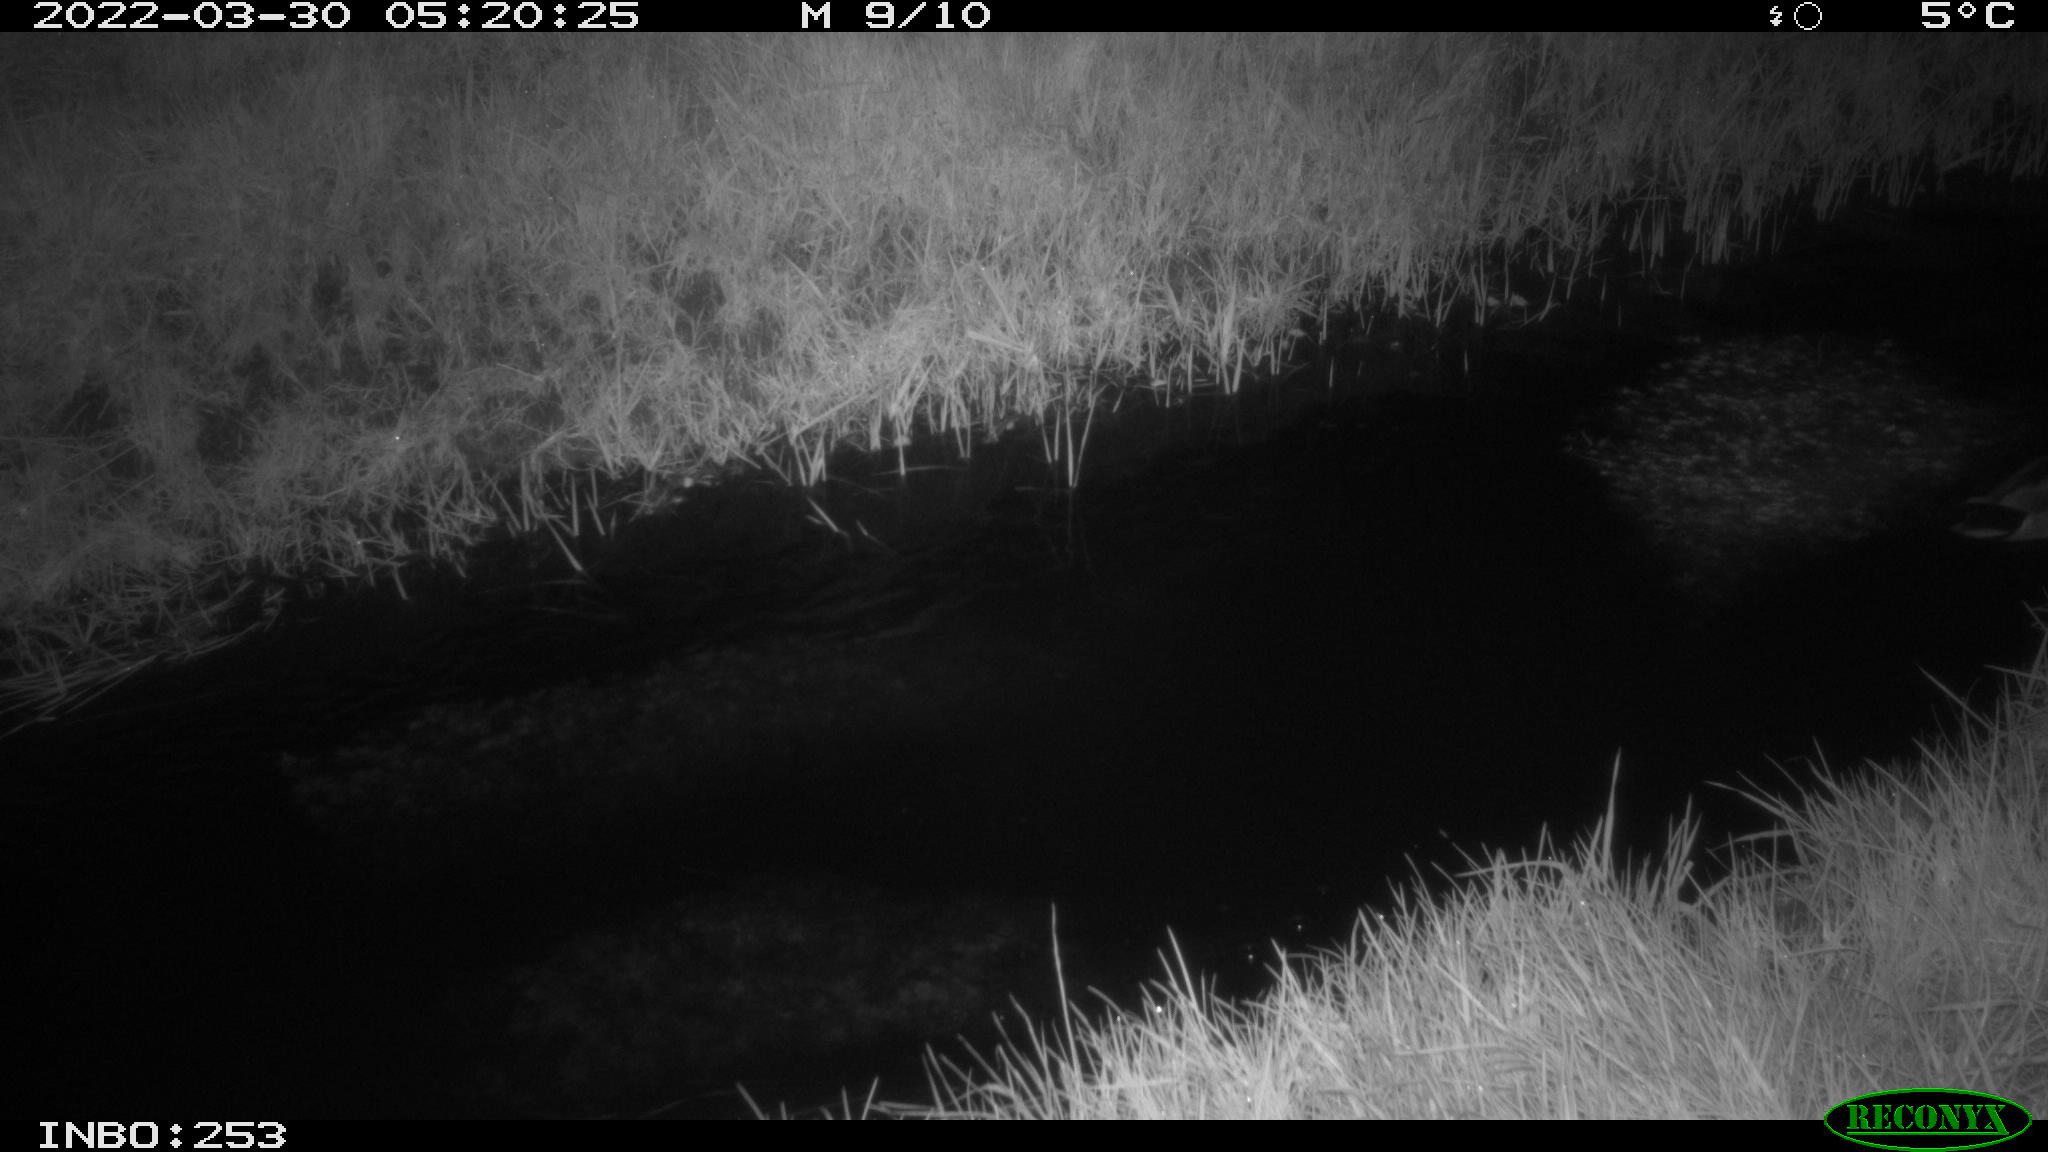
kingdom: Animalia
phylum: Chordata
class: Aves
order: Anseriformes
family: Anatidae
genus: Anas
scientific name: Anas platyrhynchos
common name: Mallard
